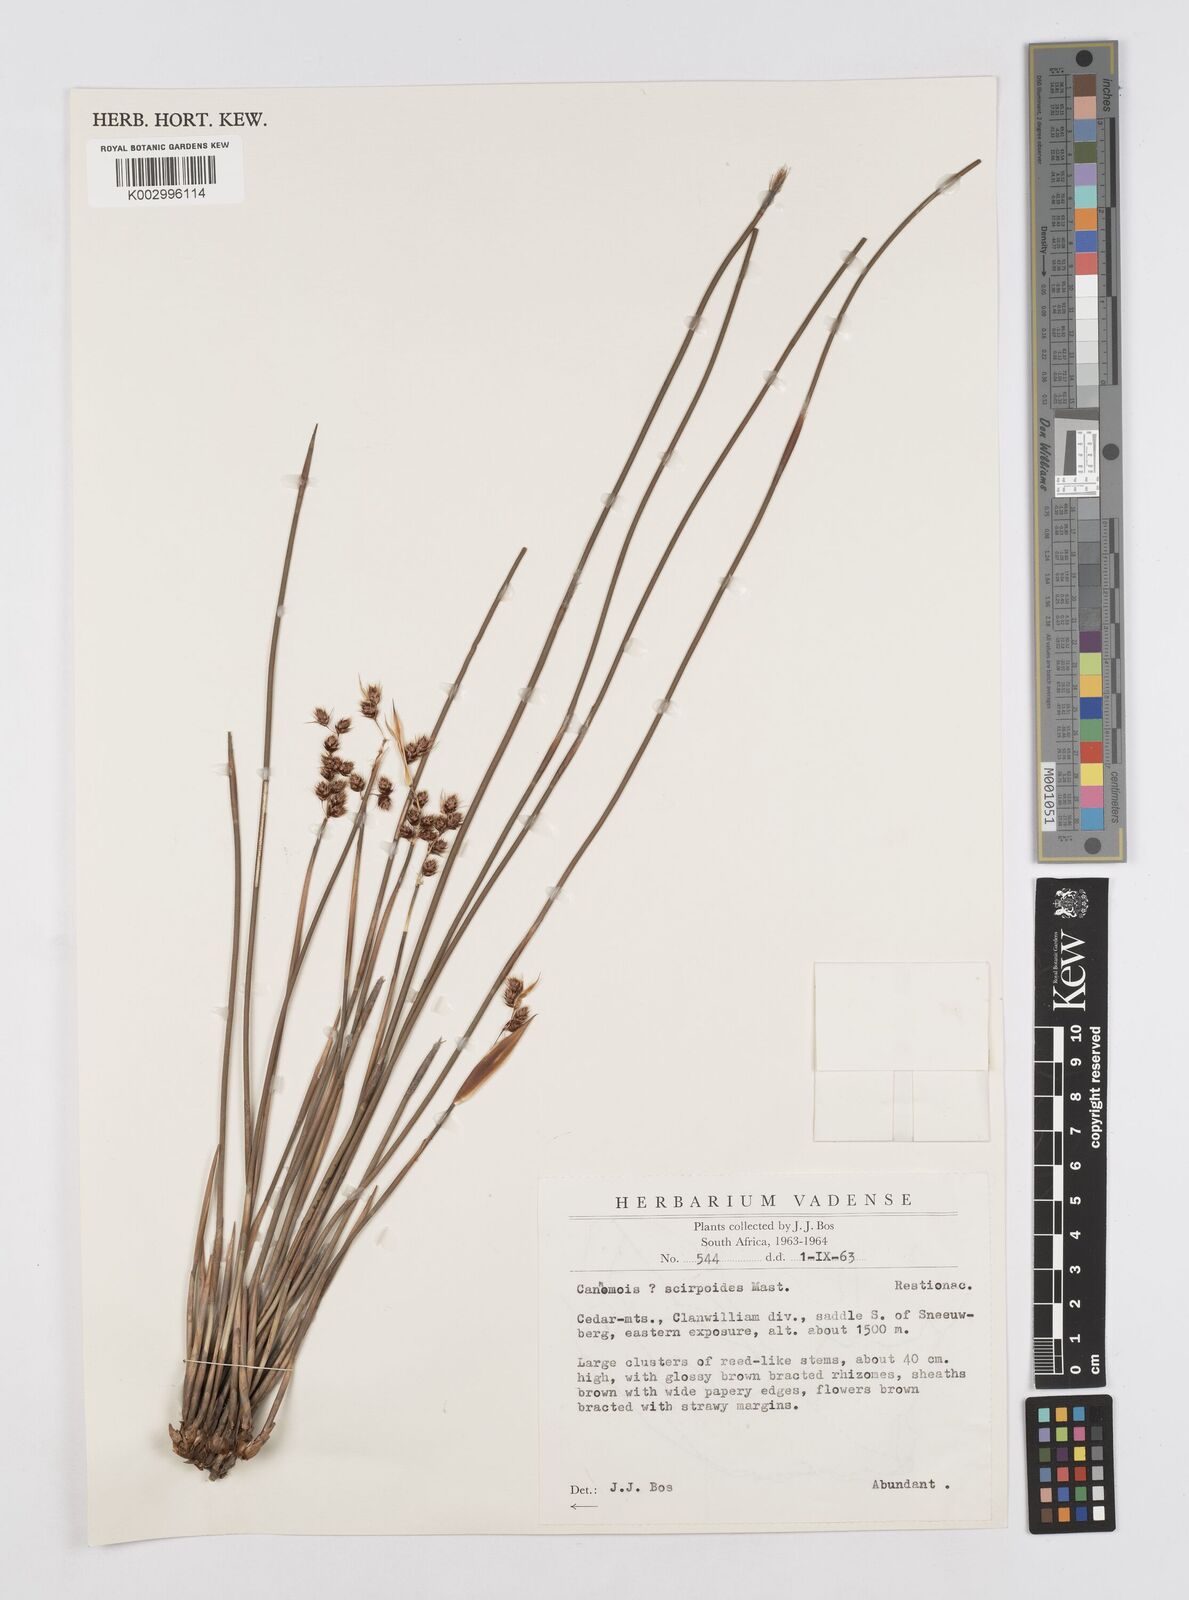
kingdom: Plantae
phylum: Tracheophyta
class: Liliopsida
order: Poales
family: Restionaceae
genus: Cannomois
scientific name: Cannomois scirpoides
